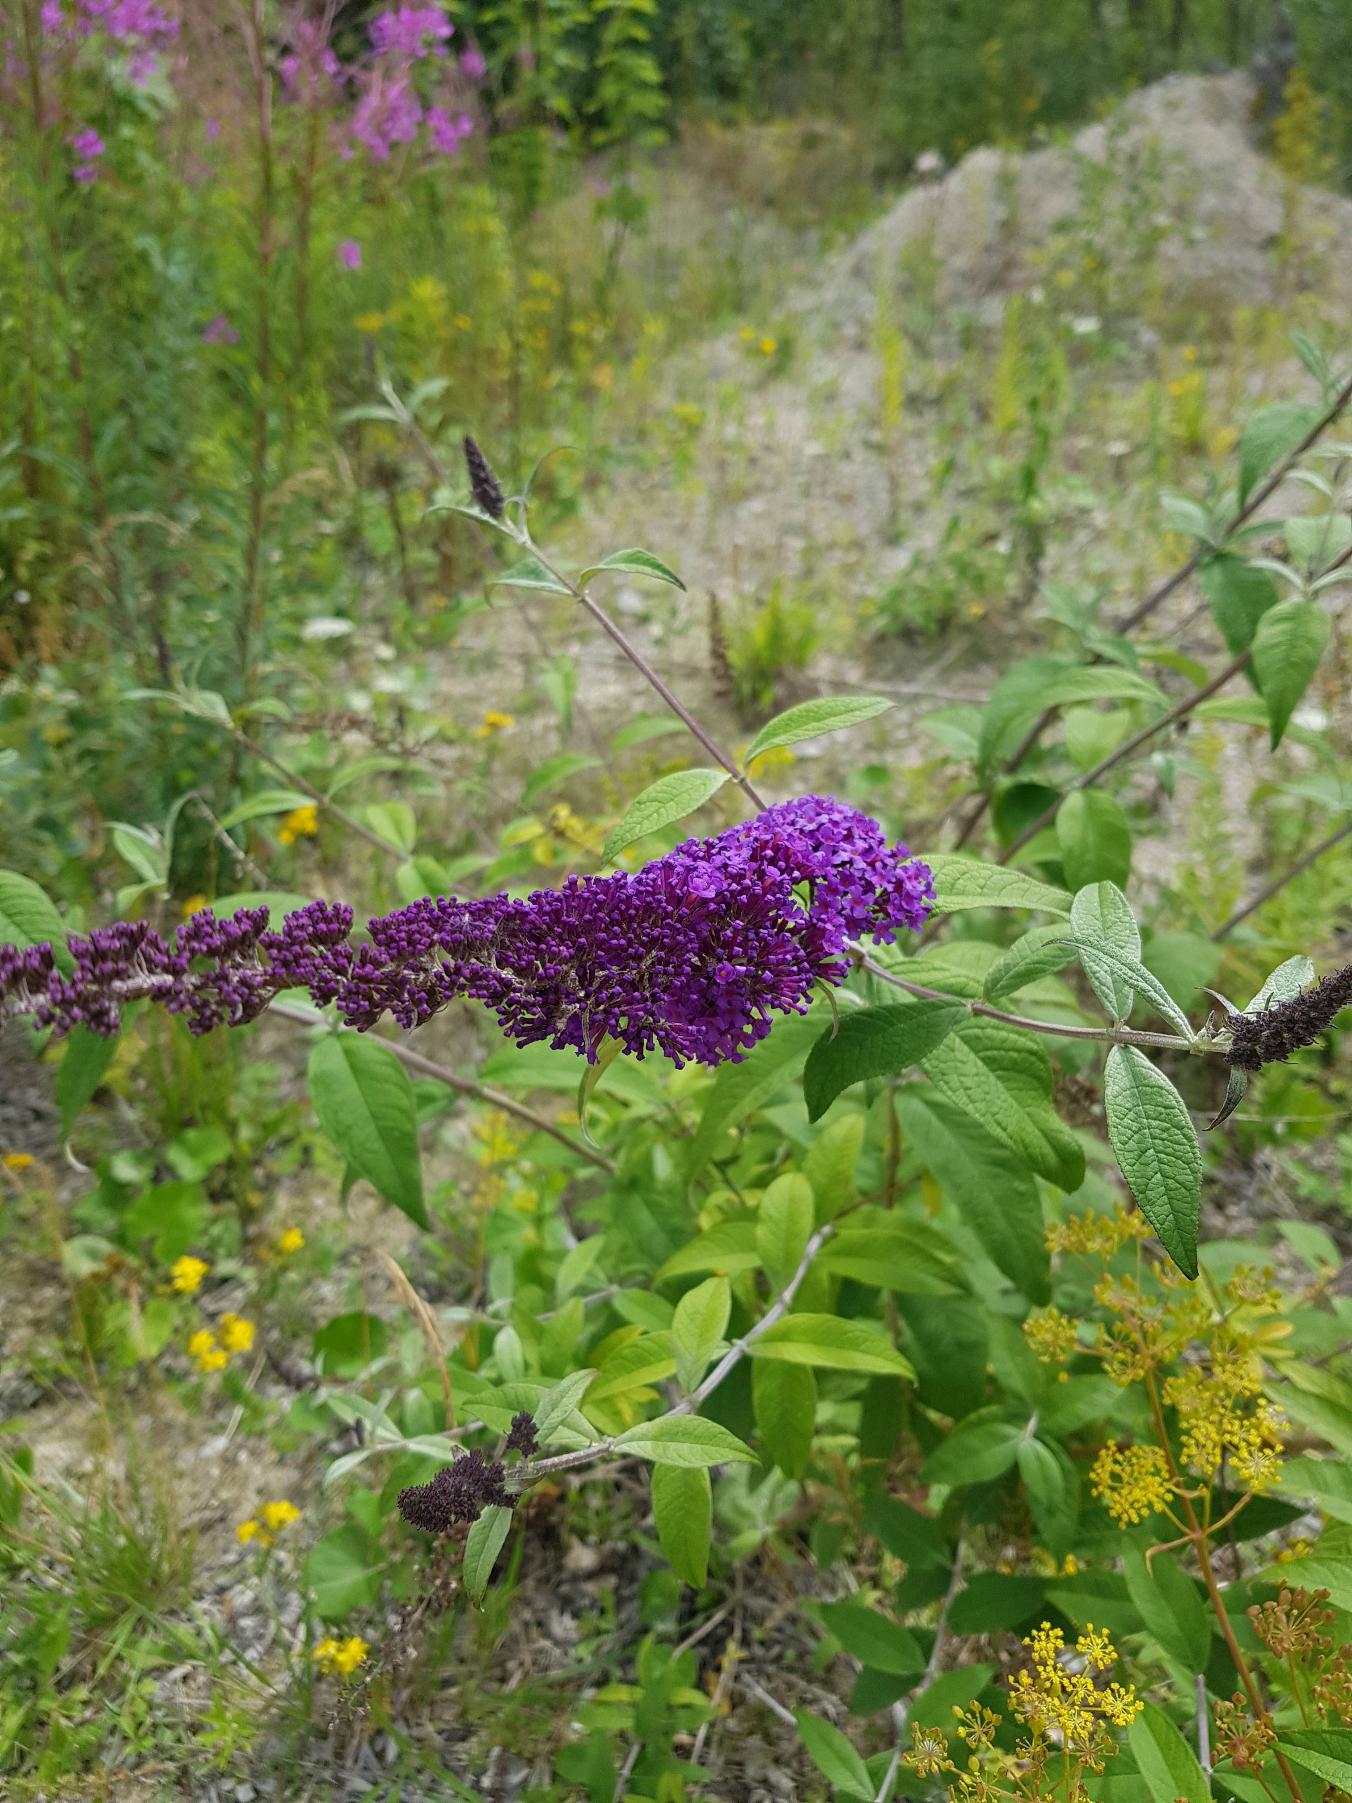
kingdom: Plantae
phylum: Tracheophyta
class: Magnoliopsida
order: Lamiales
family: Scrophulariaceae
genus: Buddleja
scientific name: Buddleja davidii
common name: Sommerfuglebusk
